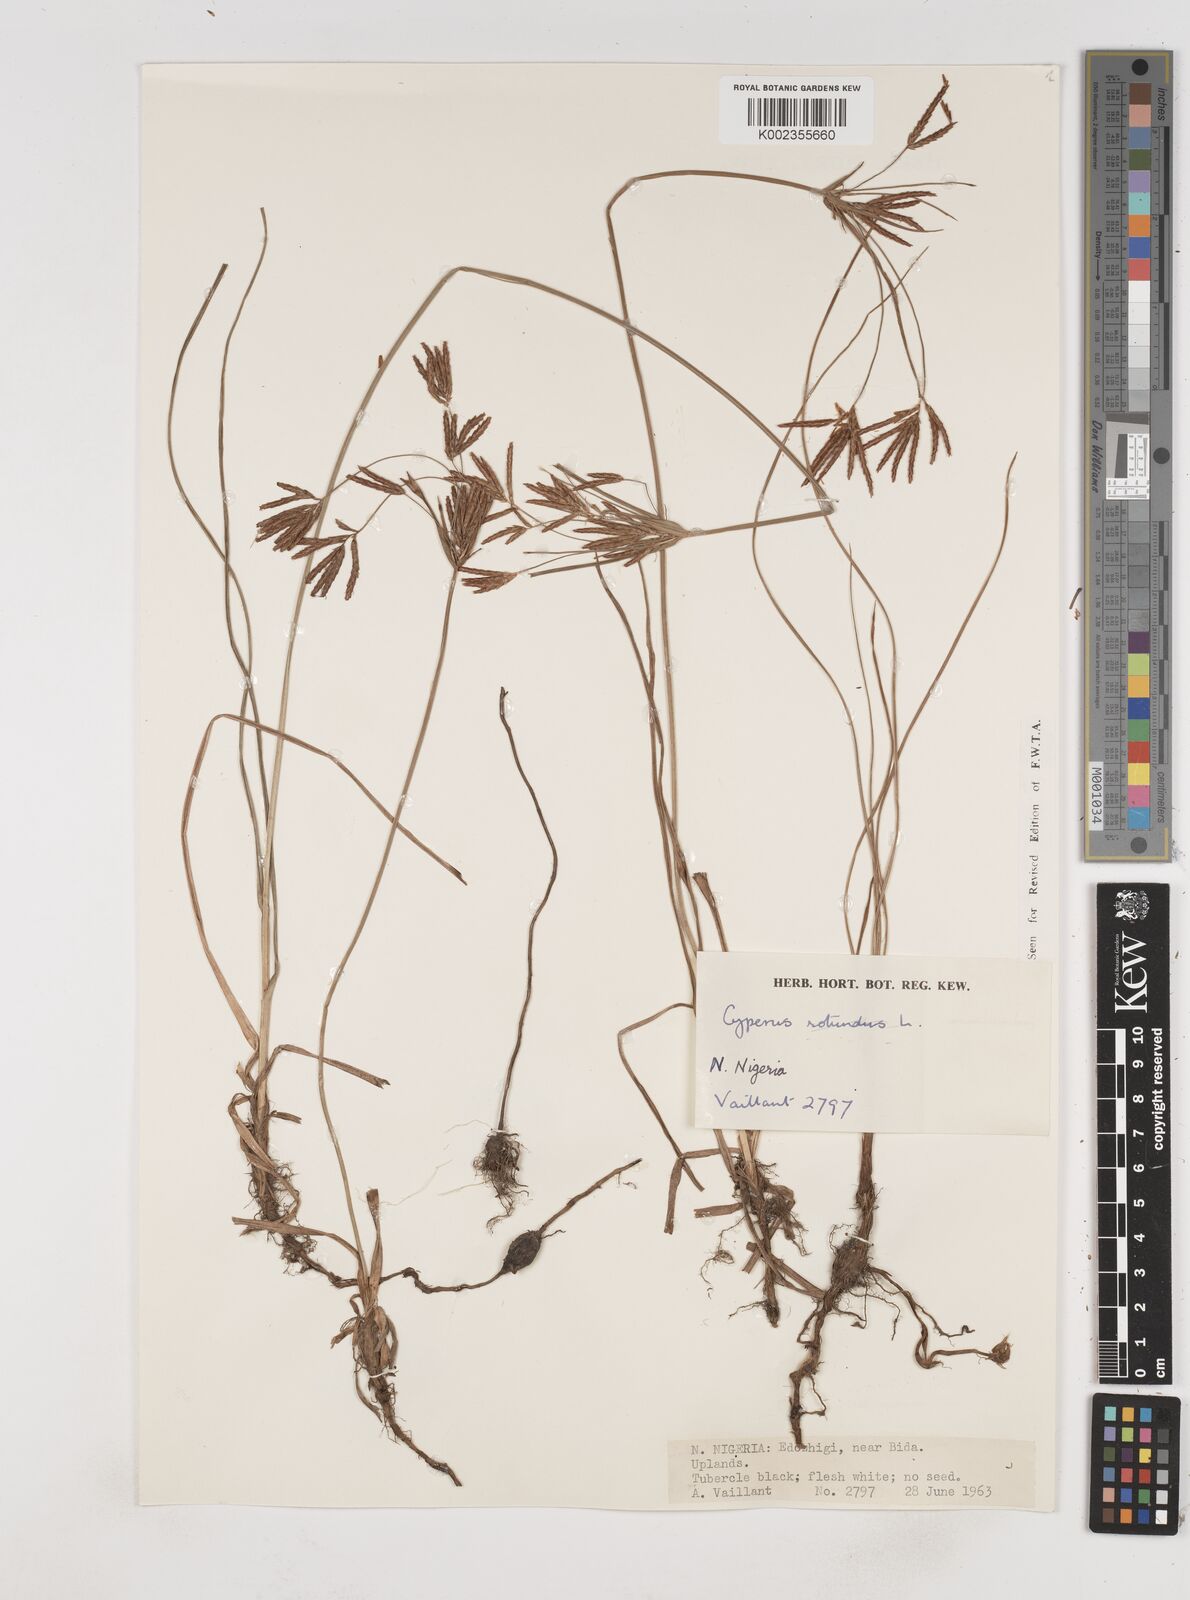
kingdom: Plantae
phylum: Tracheophyta
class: Liliopsida
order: Poales
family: Cyperaceae
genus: Cyperus
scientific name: Cyperus rotundus
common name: Nutgrass
